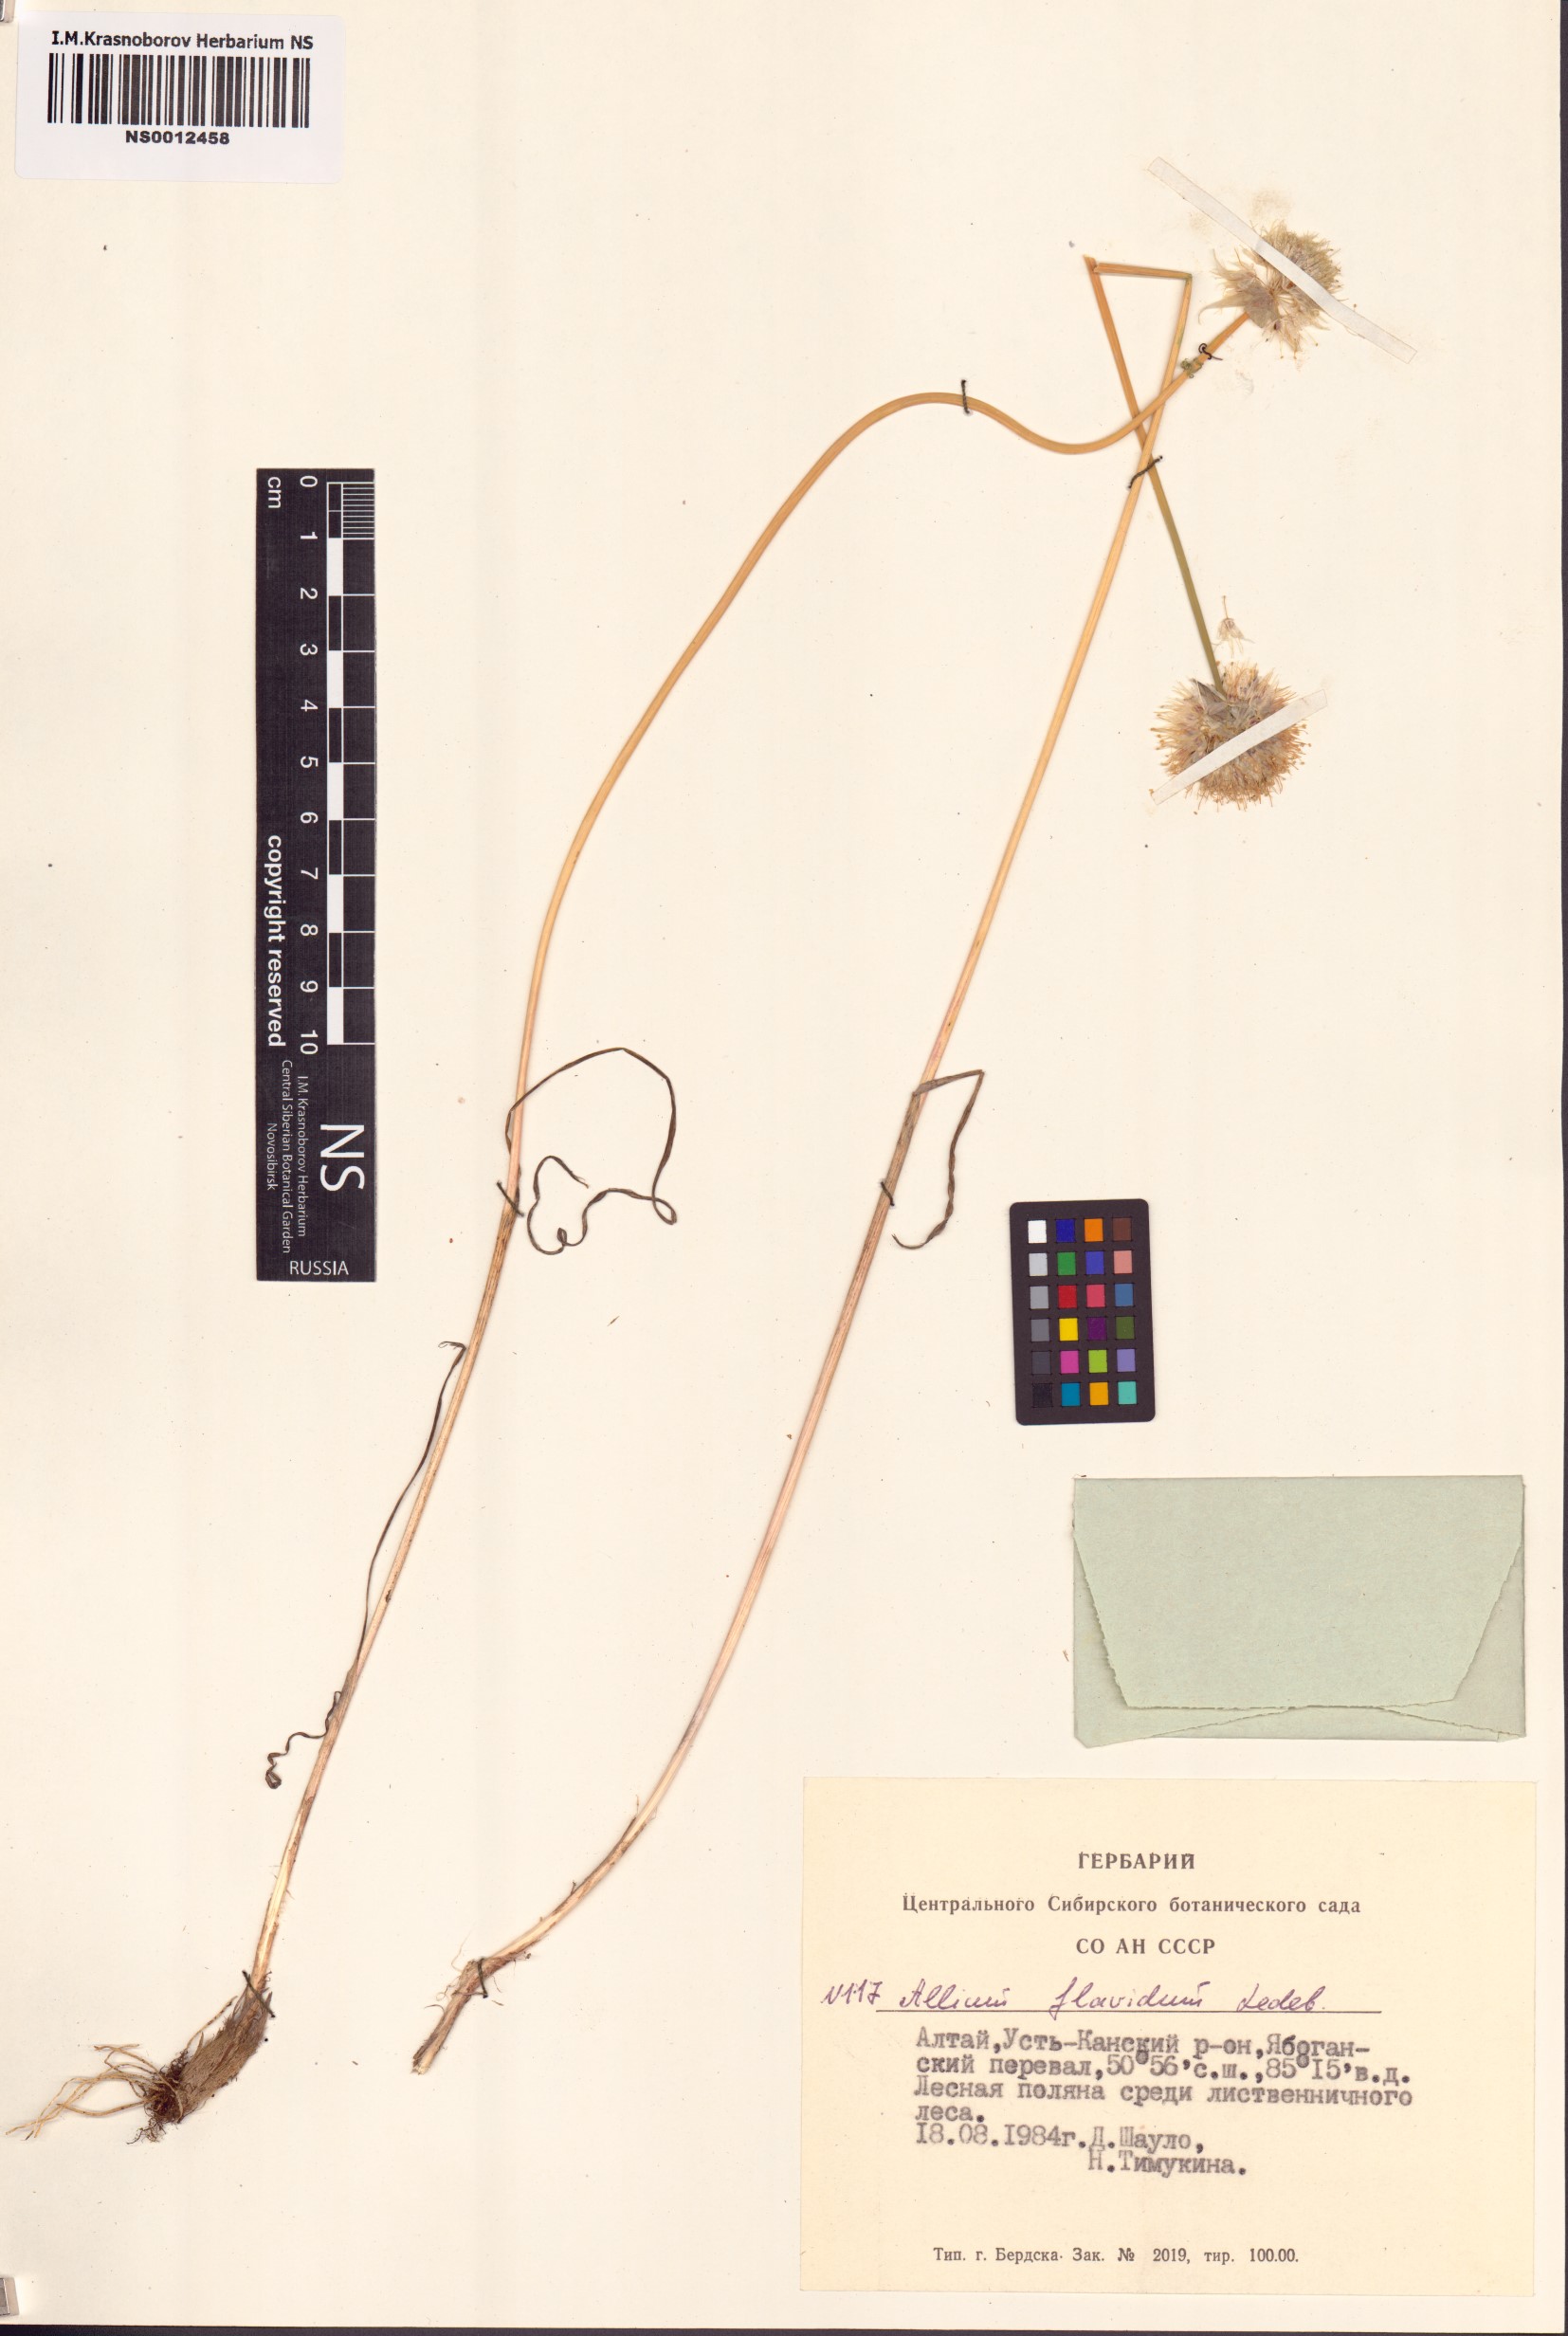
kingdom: Plantae
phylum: Tracheophyta
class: Liliopsida
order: Asparagales
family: Amaryllidaceae
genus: Allium
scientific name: Allium flavidum
